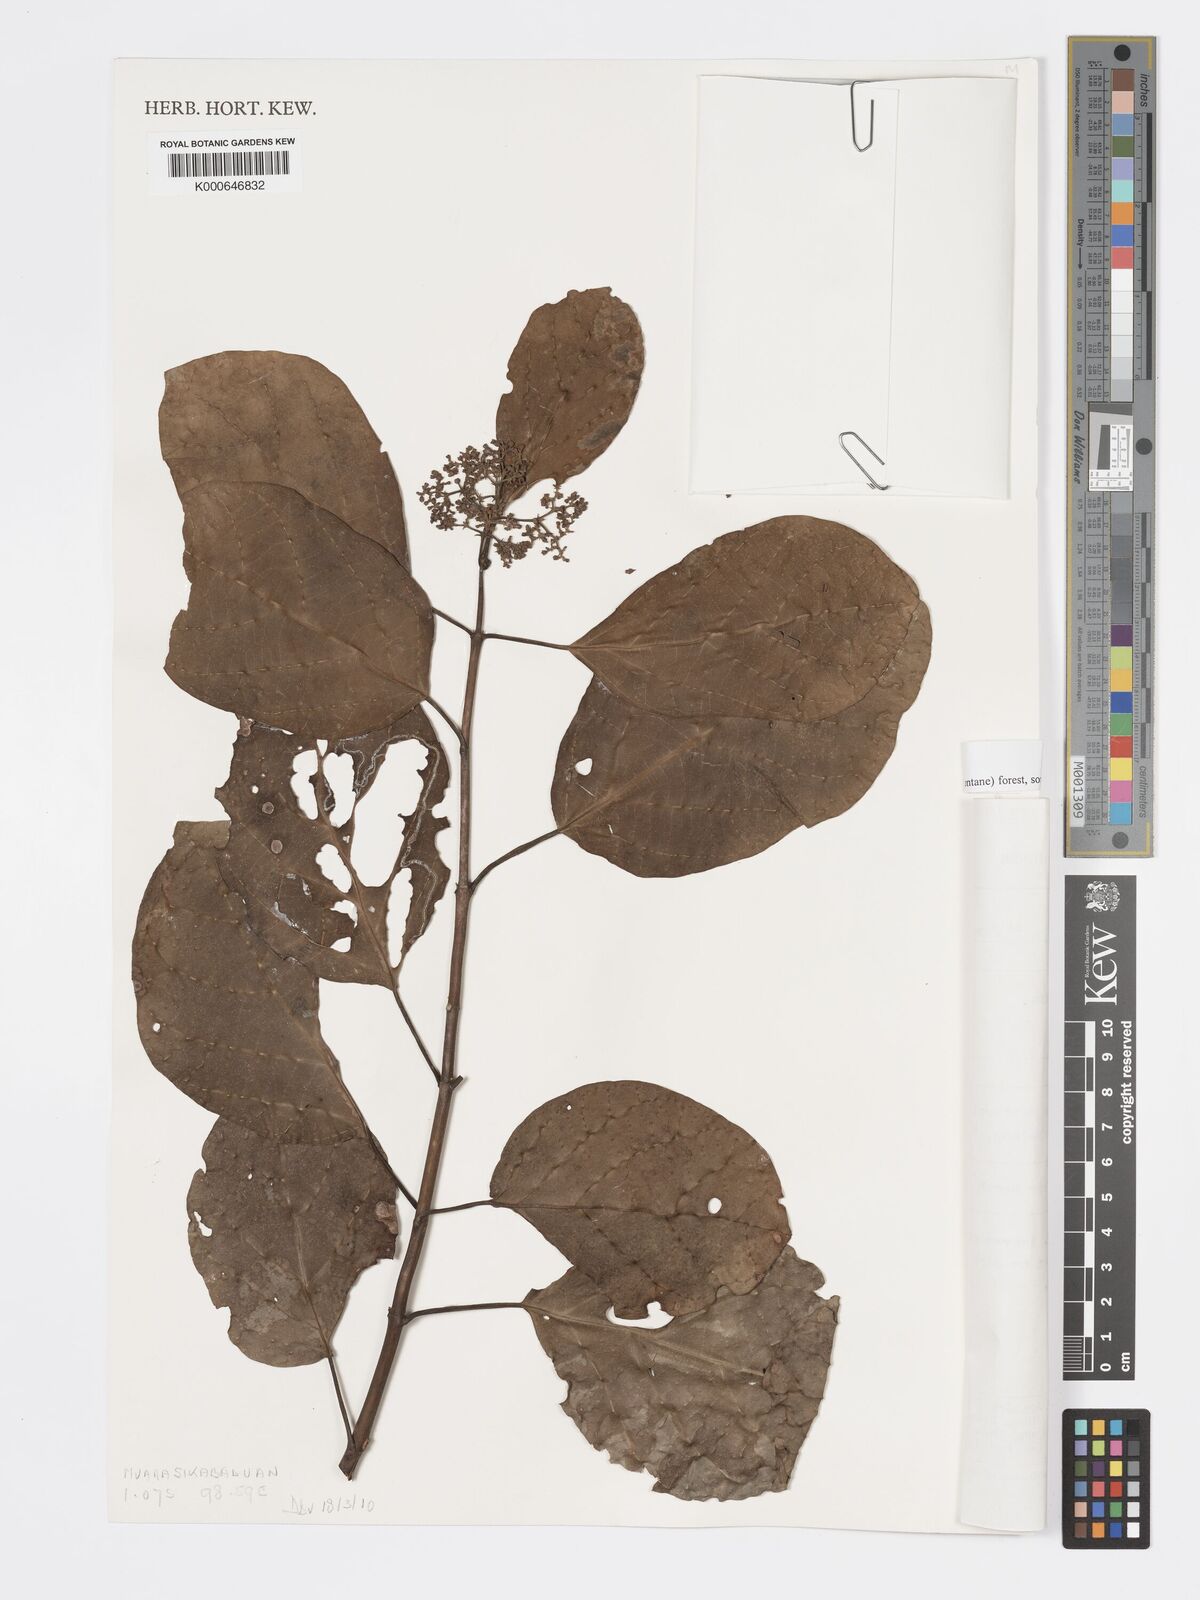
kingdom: Plantae
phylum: Tracheophyta
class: Magnoliopsida
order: Lamiales
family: Lamiaceae
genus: Premna
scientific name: Premna serratifolia
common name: Bastard guelder
